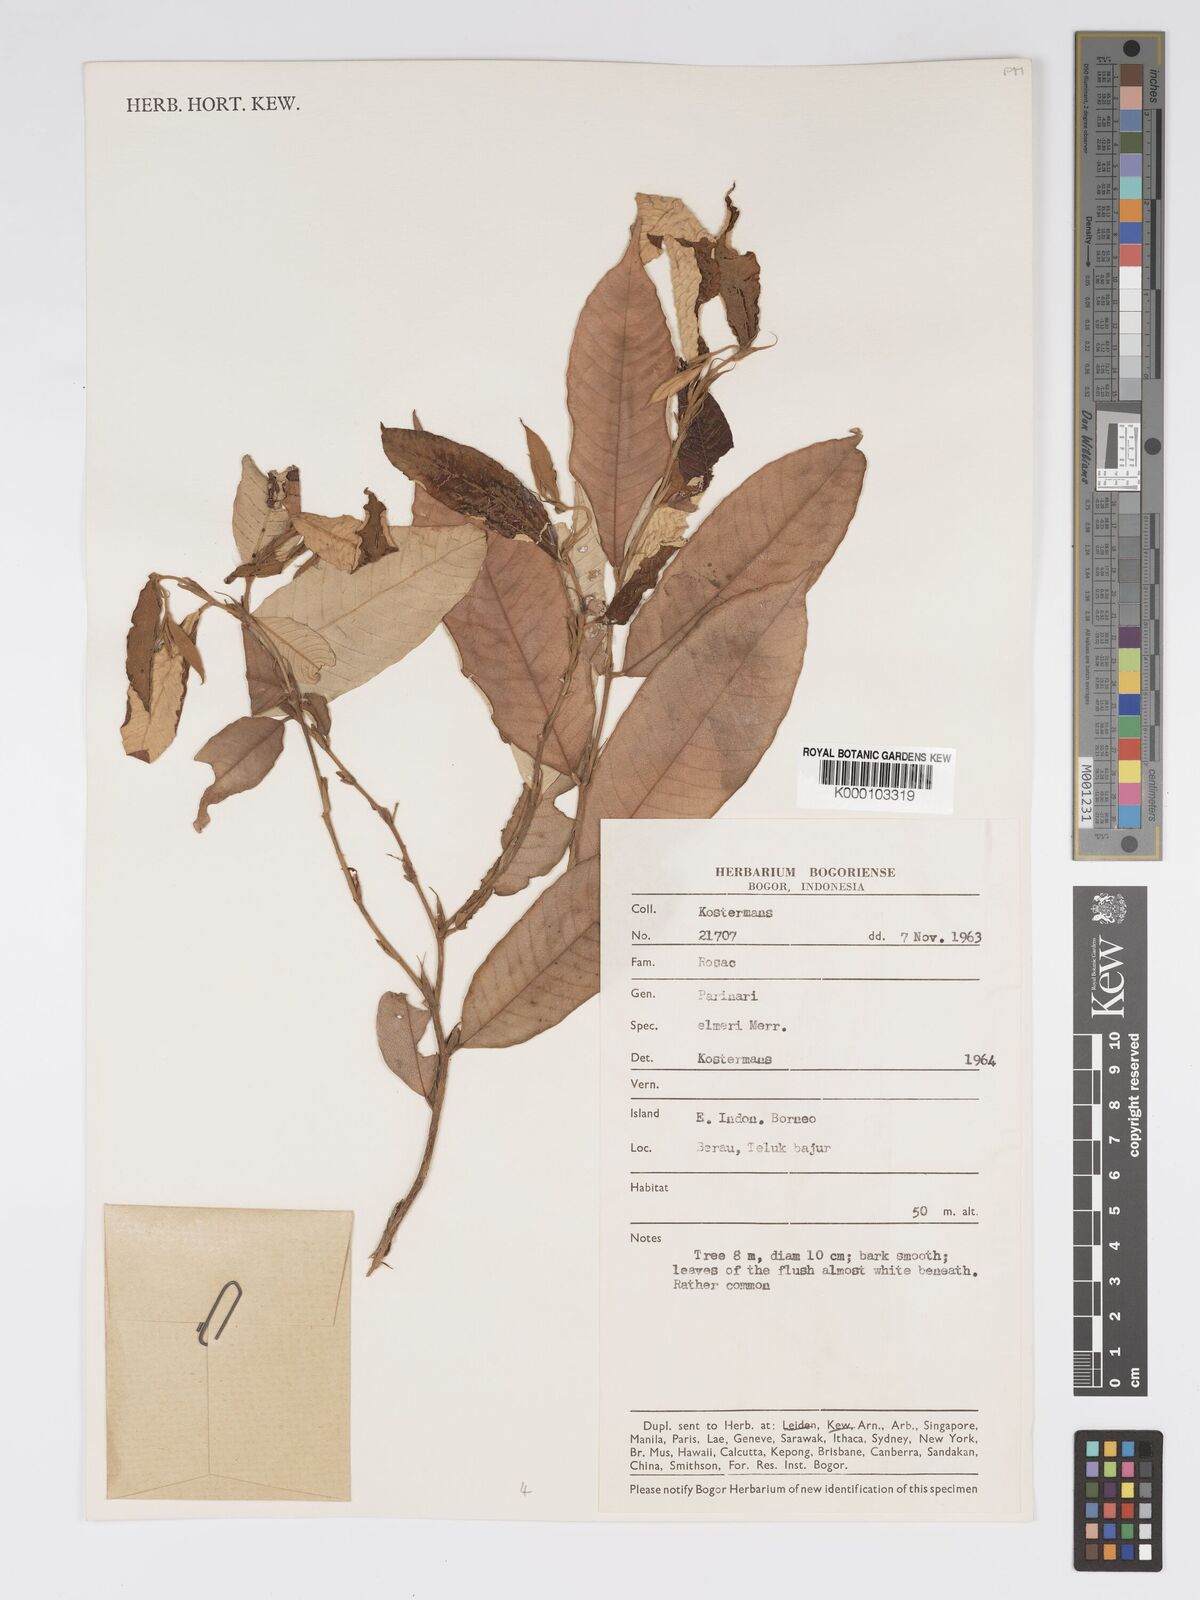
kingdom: Plantae
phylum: Tracheophyta
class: Magnoliopsida
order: Malpighiales
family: Chrysobalanaceae
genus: Parinari
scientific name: Parinari elmeri
